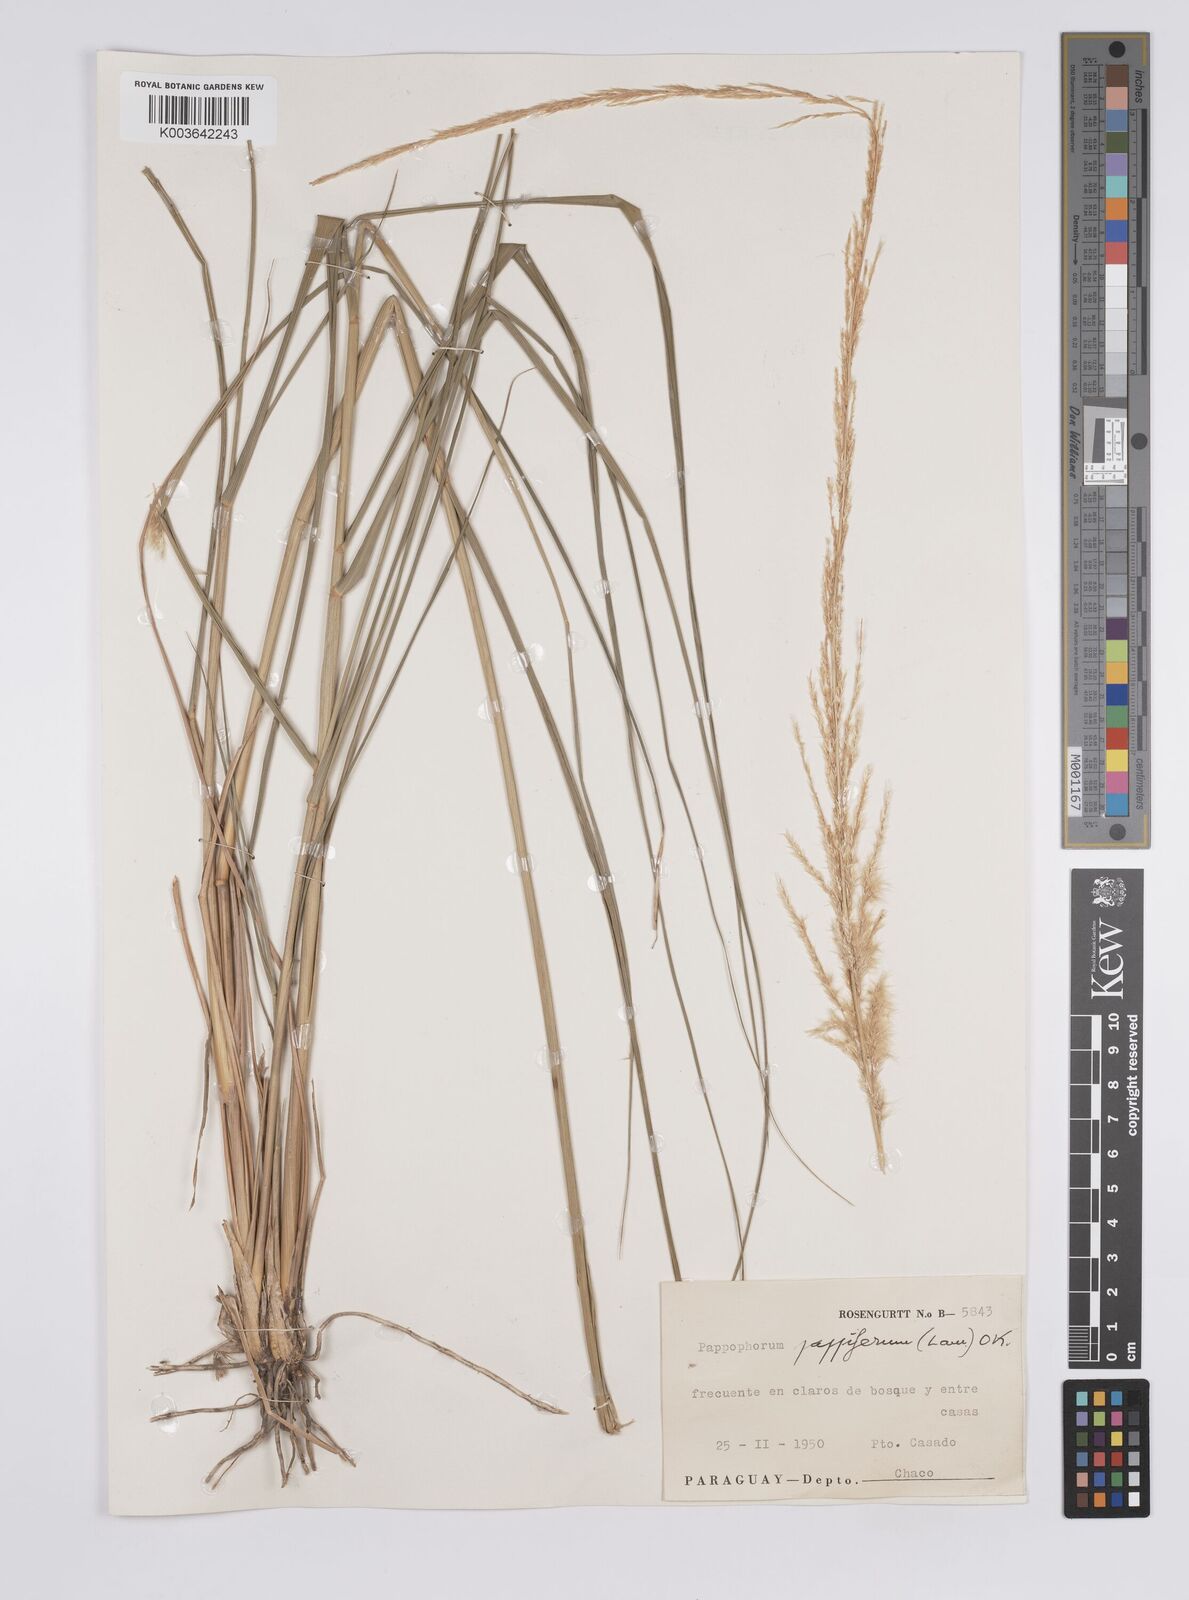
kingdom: Plantae
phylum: Tracheophyta
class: Liliopsida
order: Poales
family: Poaceae
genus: Pappophorum
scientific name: Pappophorum pappiferum
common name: Crabgrass
